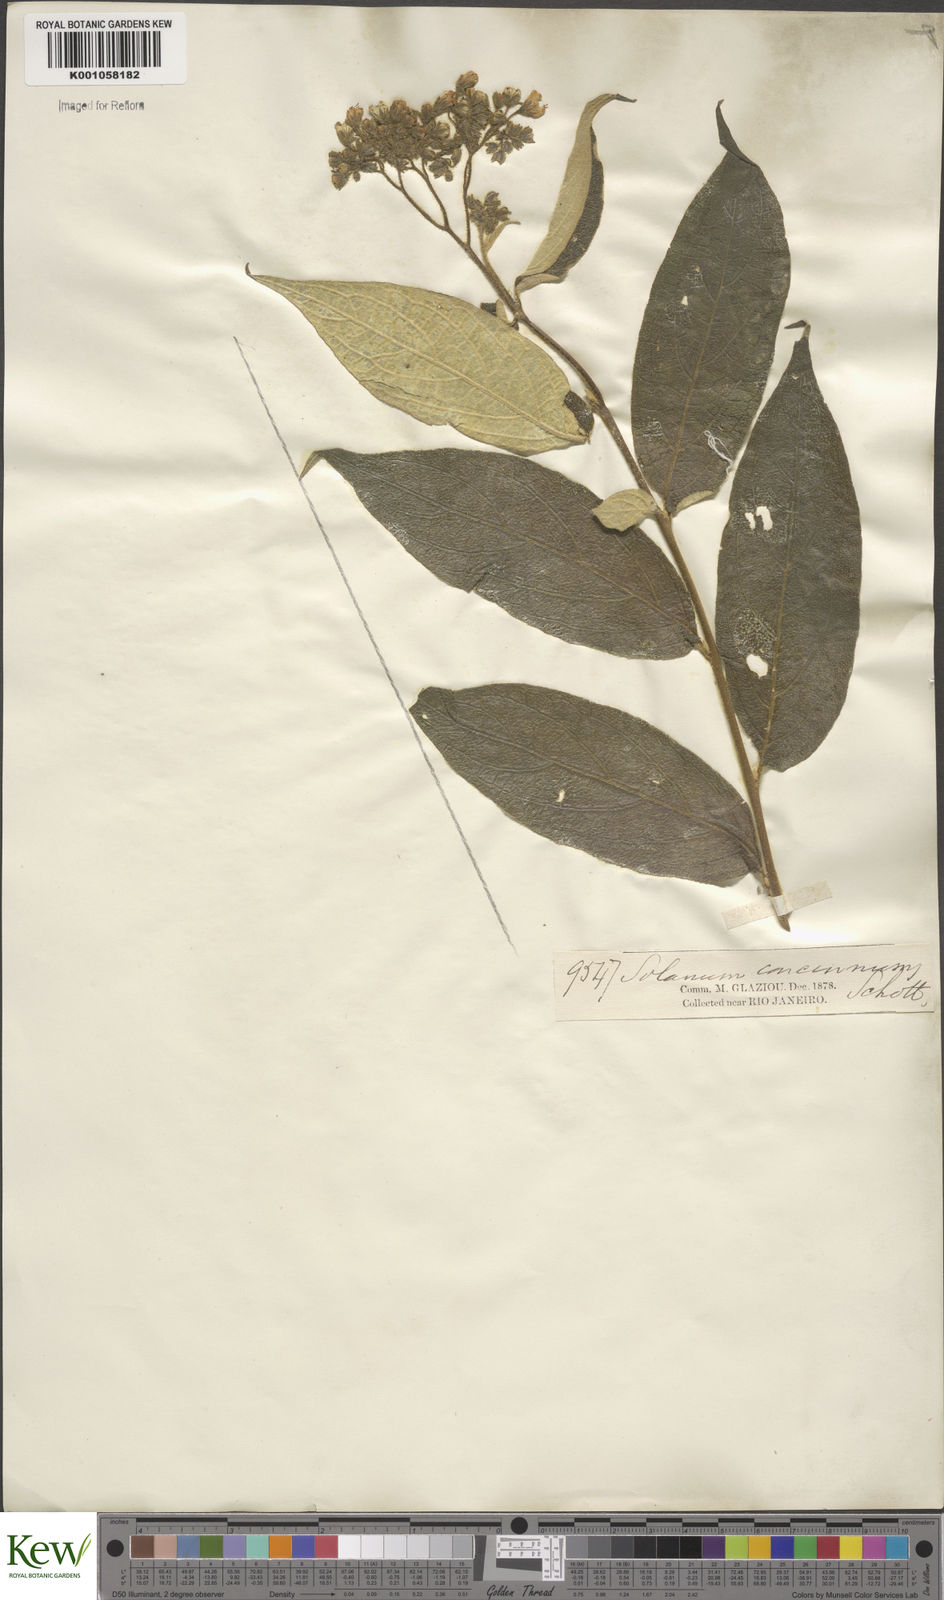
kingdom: Plantae
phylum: Tracheophyta
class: Magnoliopsida
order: Solanales
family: Solanaceae
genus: Solanum
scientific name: Solanum concinnum
